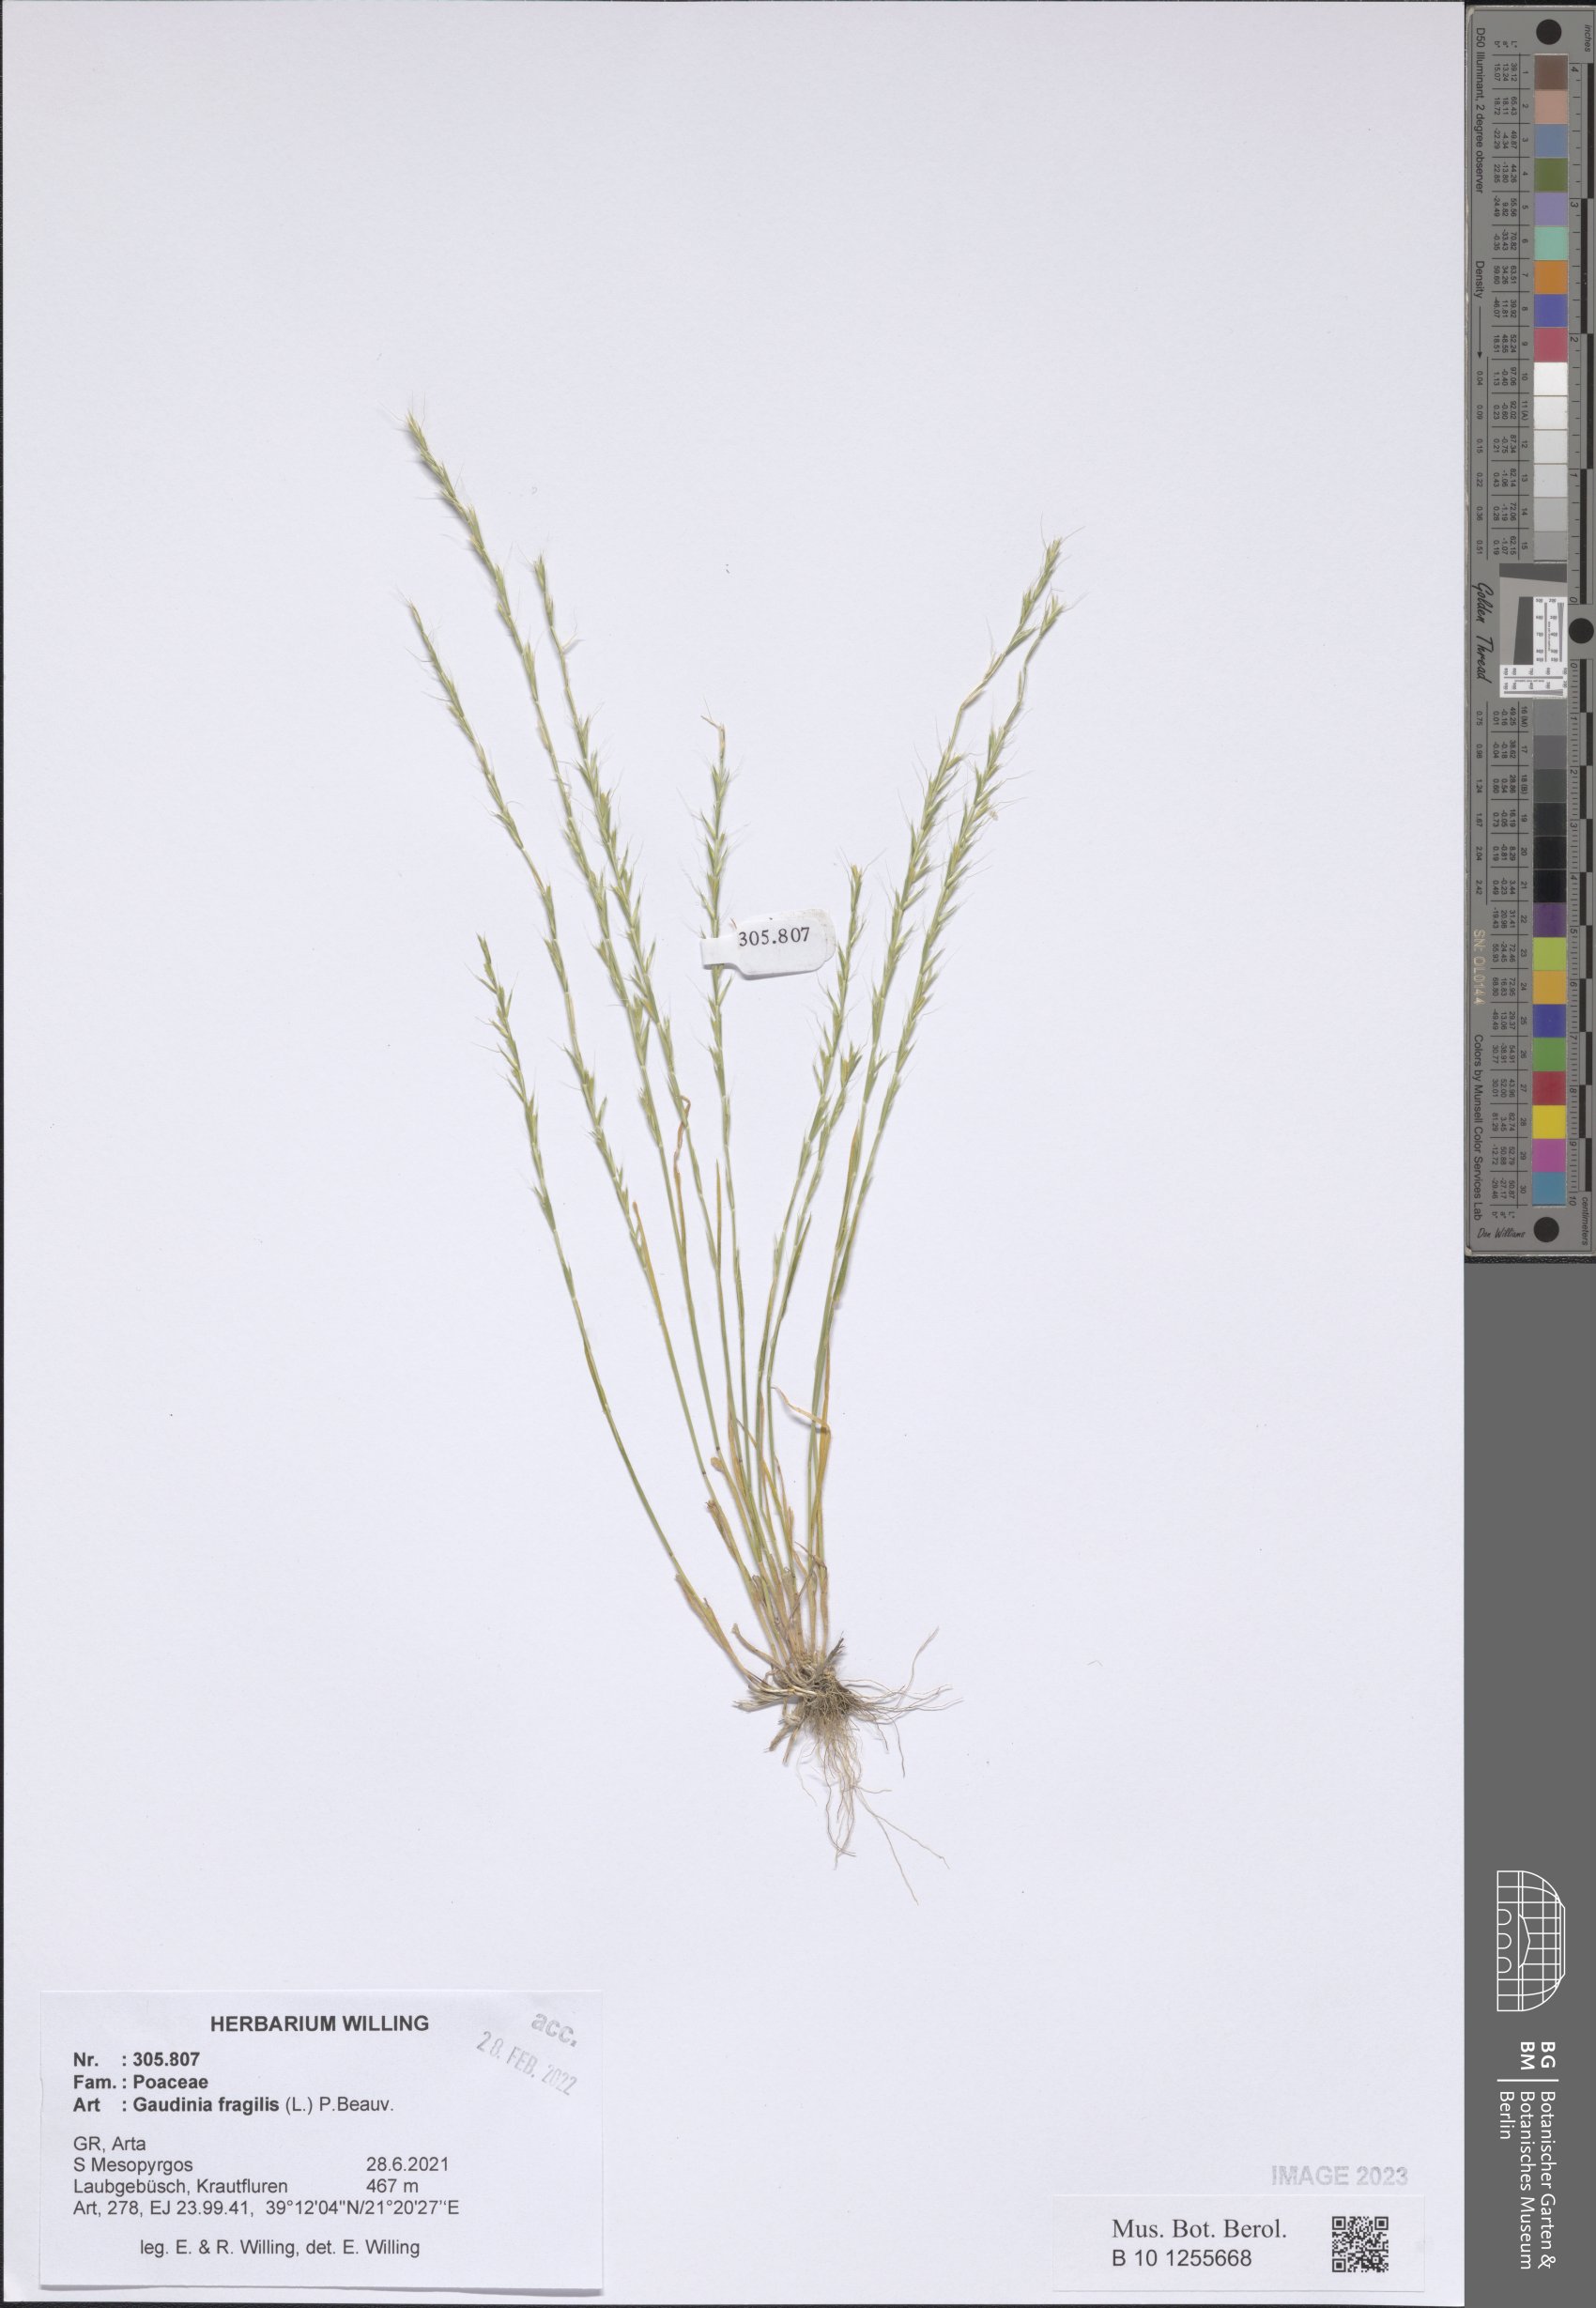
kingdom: Plantae
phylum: Tracheophyta
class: Liliopsida
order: Poales
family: Poaceae
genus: Gaudinia
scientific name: Gaudinia fragilis
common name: French oat-grass
